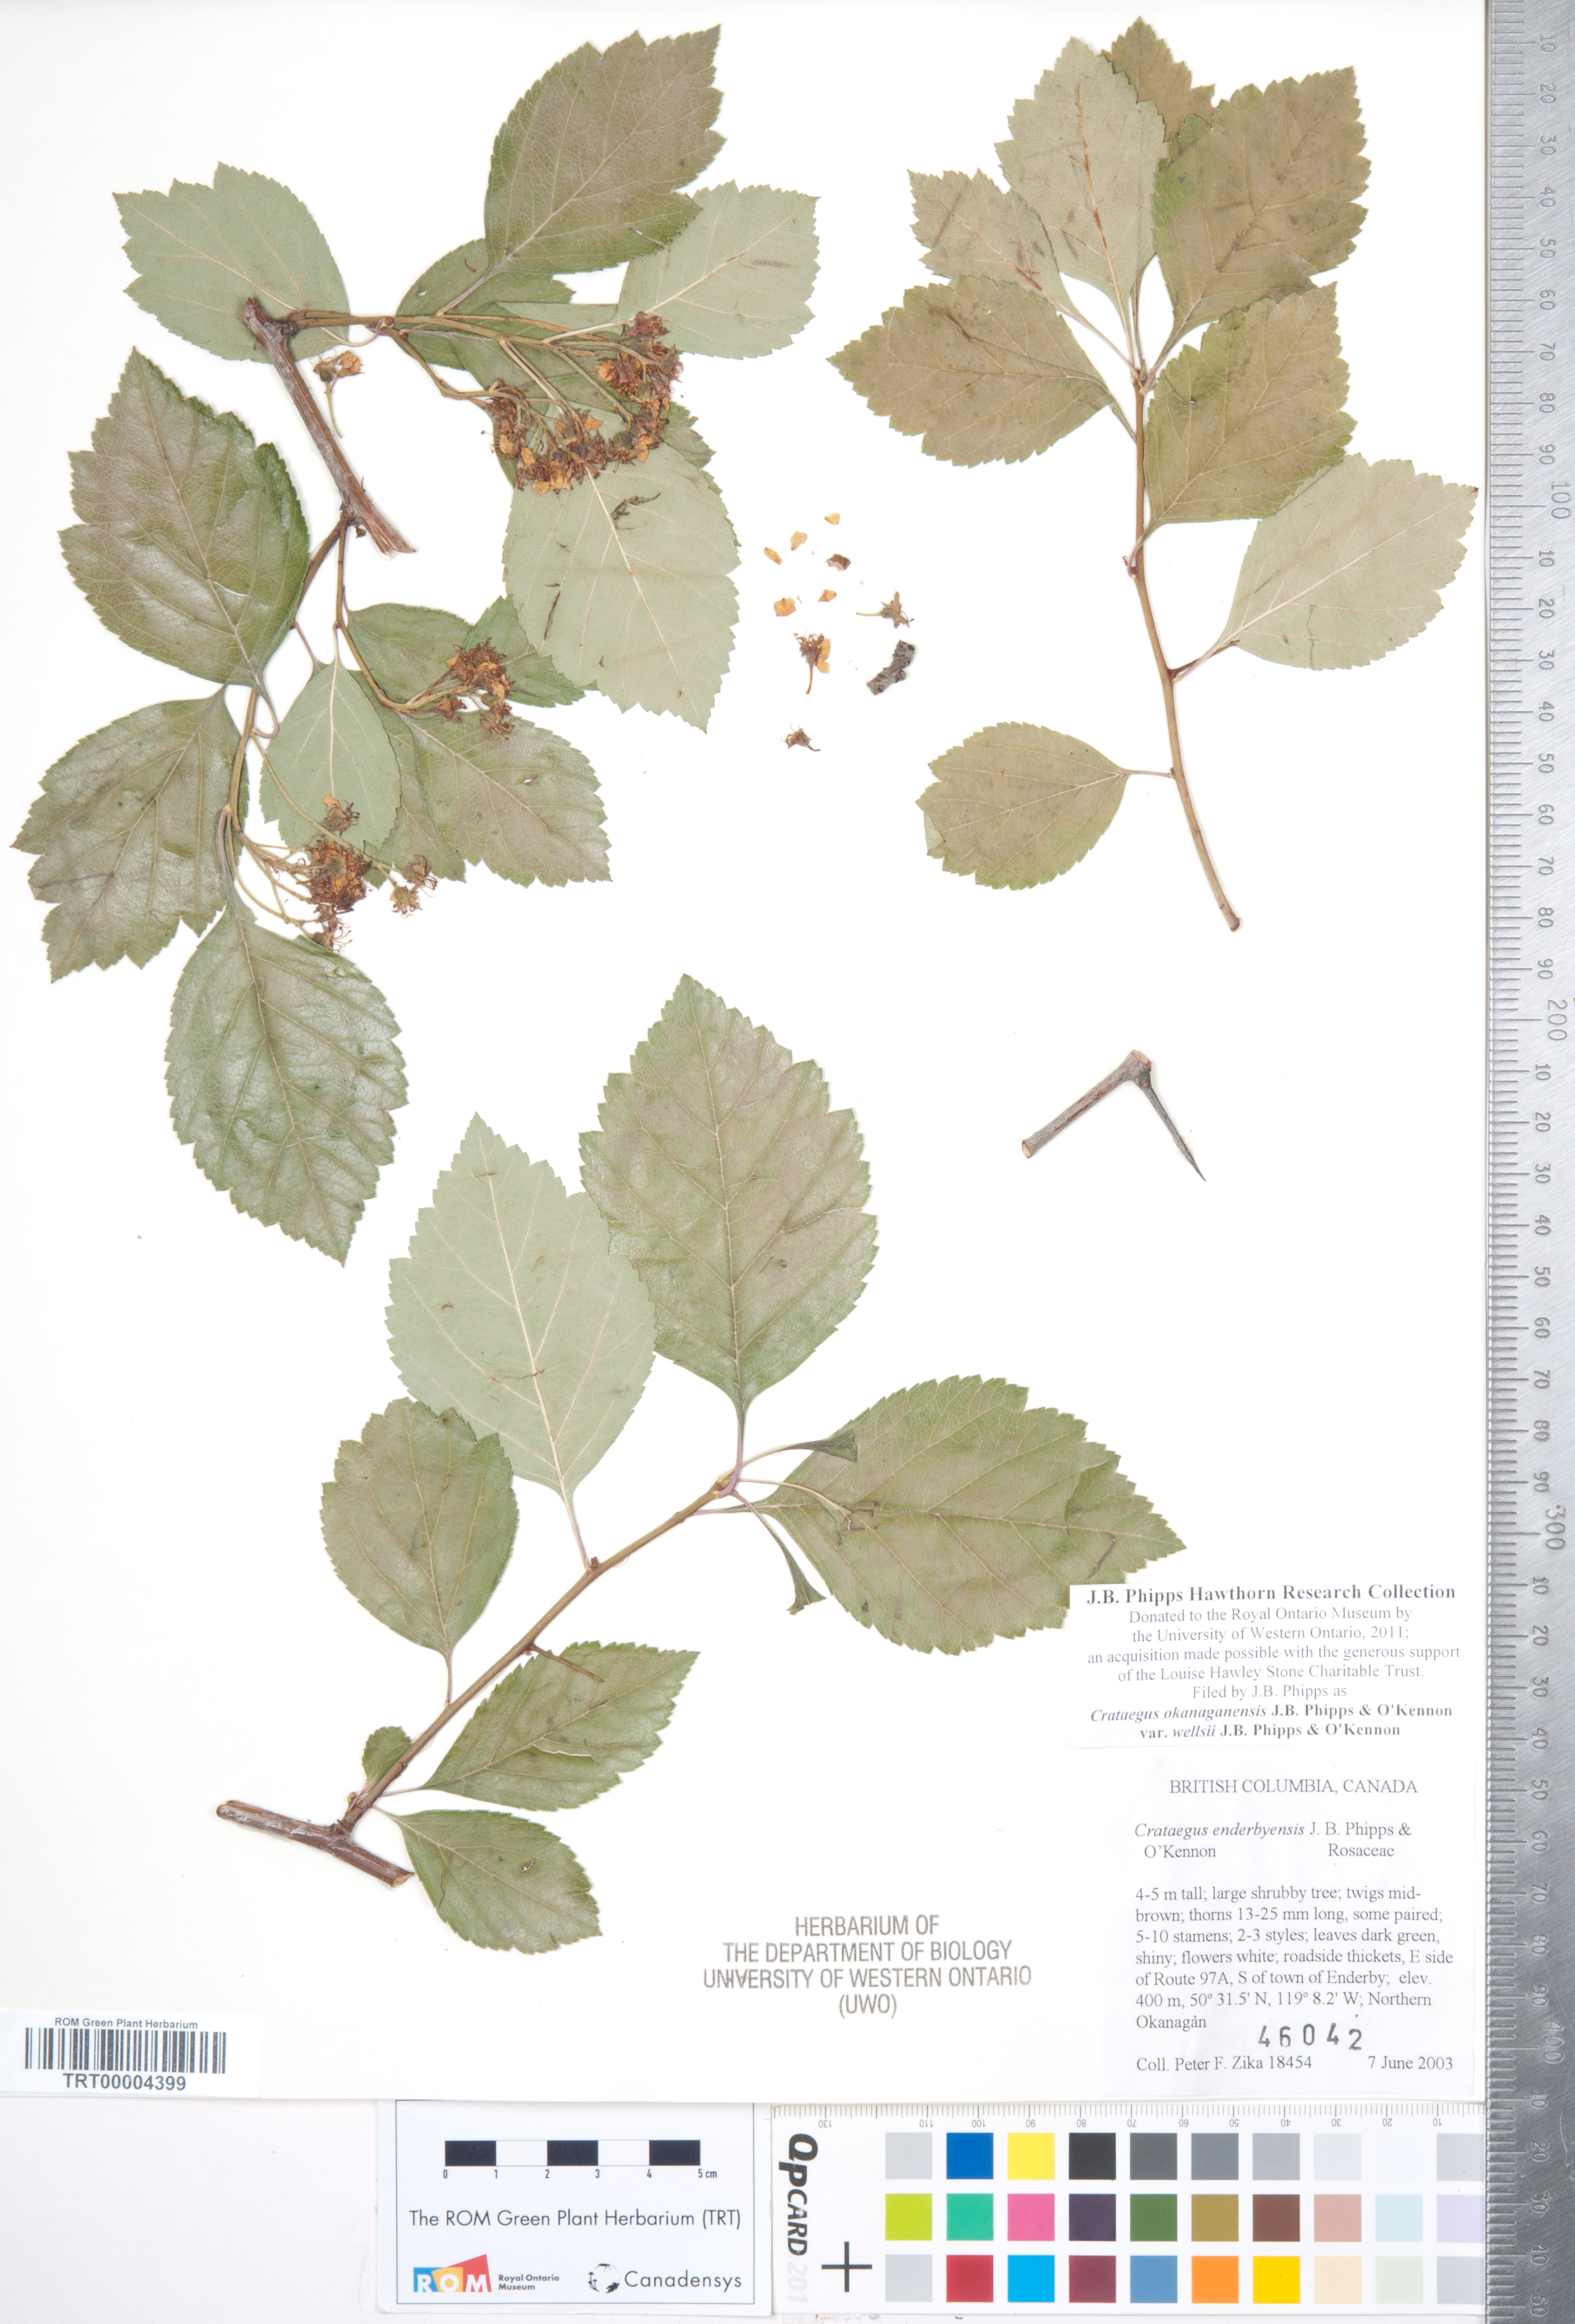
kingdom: Plantae
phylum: Tracheophyta
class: Magnoliopsida
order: Rosales
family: Rosaceae
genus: Crataegus
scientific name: Crataegus okanaganensis
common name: Okanagan valley hawthorn
